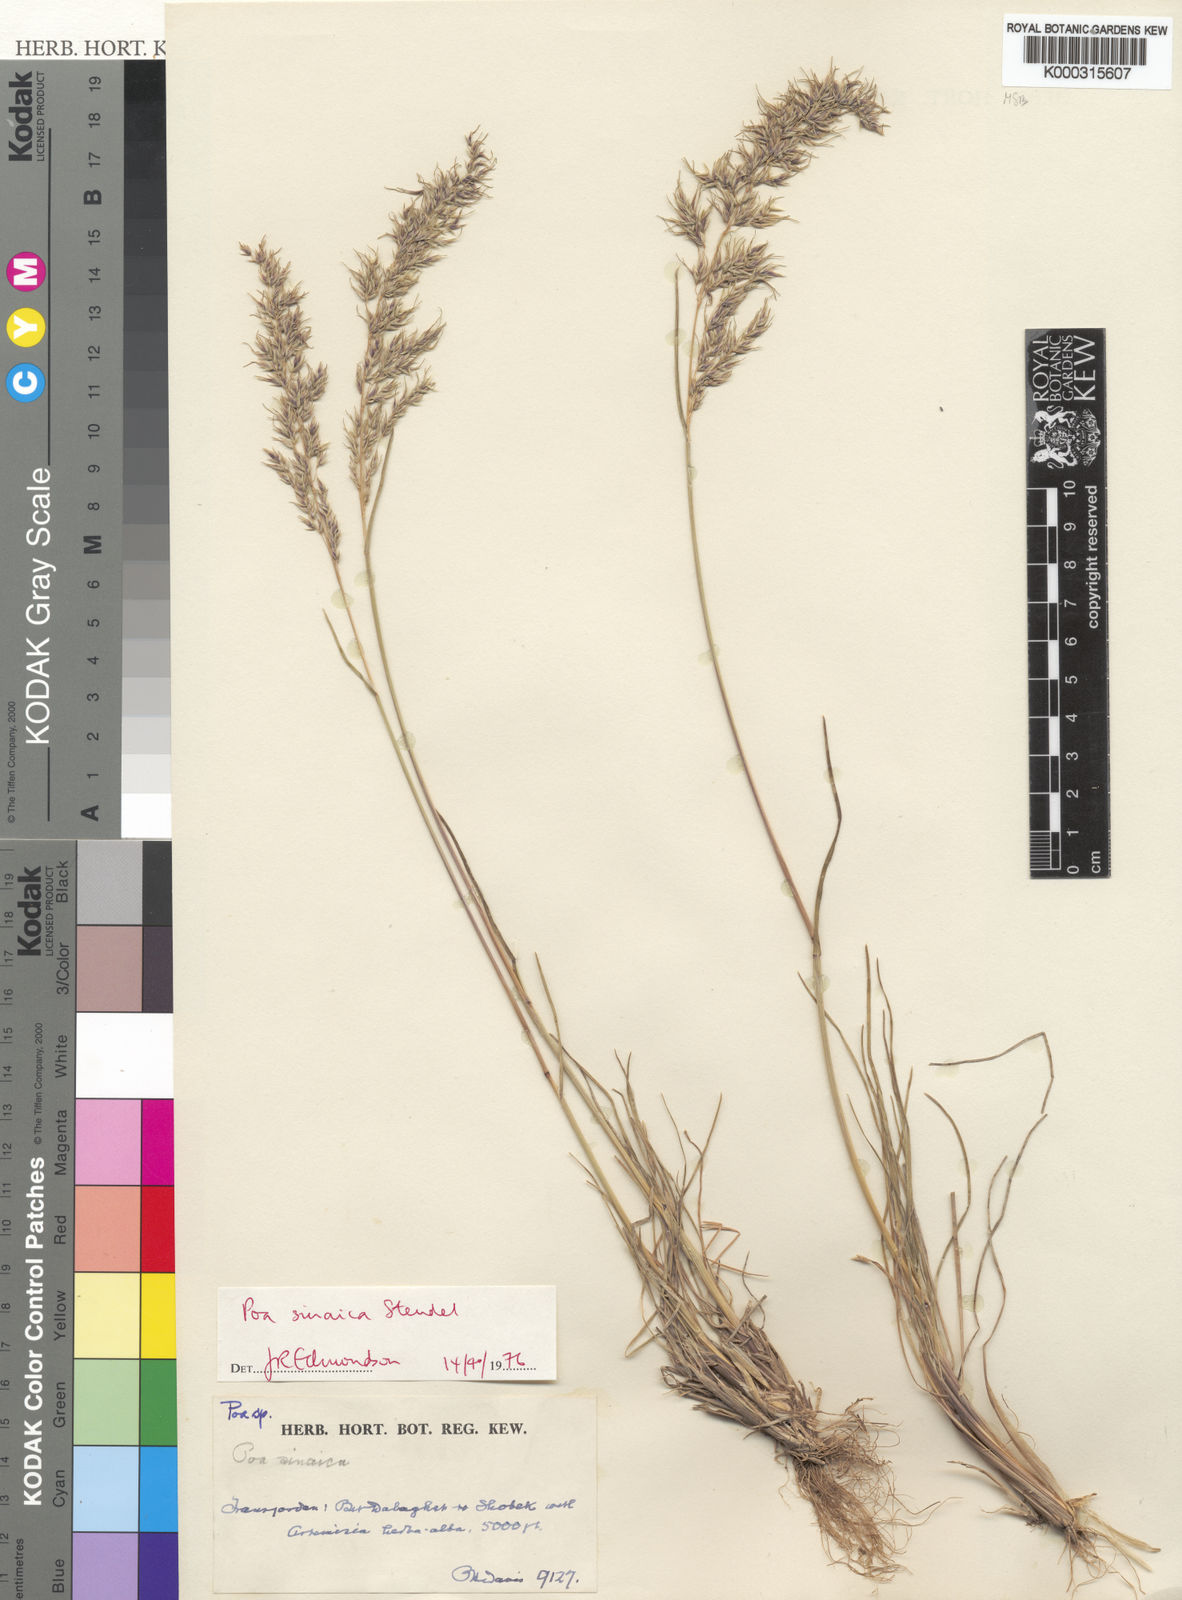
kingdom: Plantae
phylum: Tracheophyta
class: Liliopsida
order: Poales
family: Poaceae
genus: Poa
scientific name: Poa sinaica
